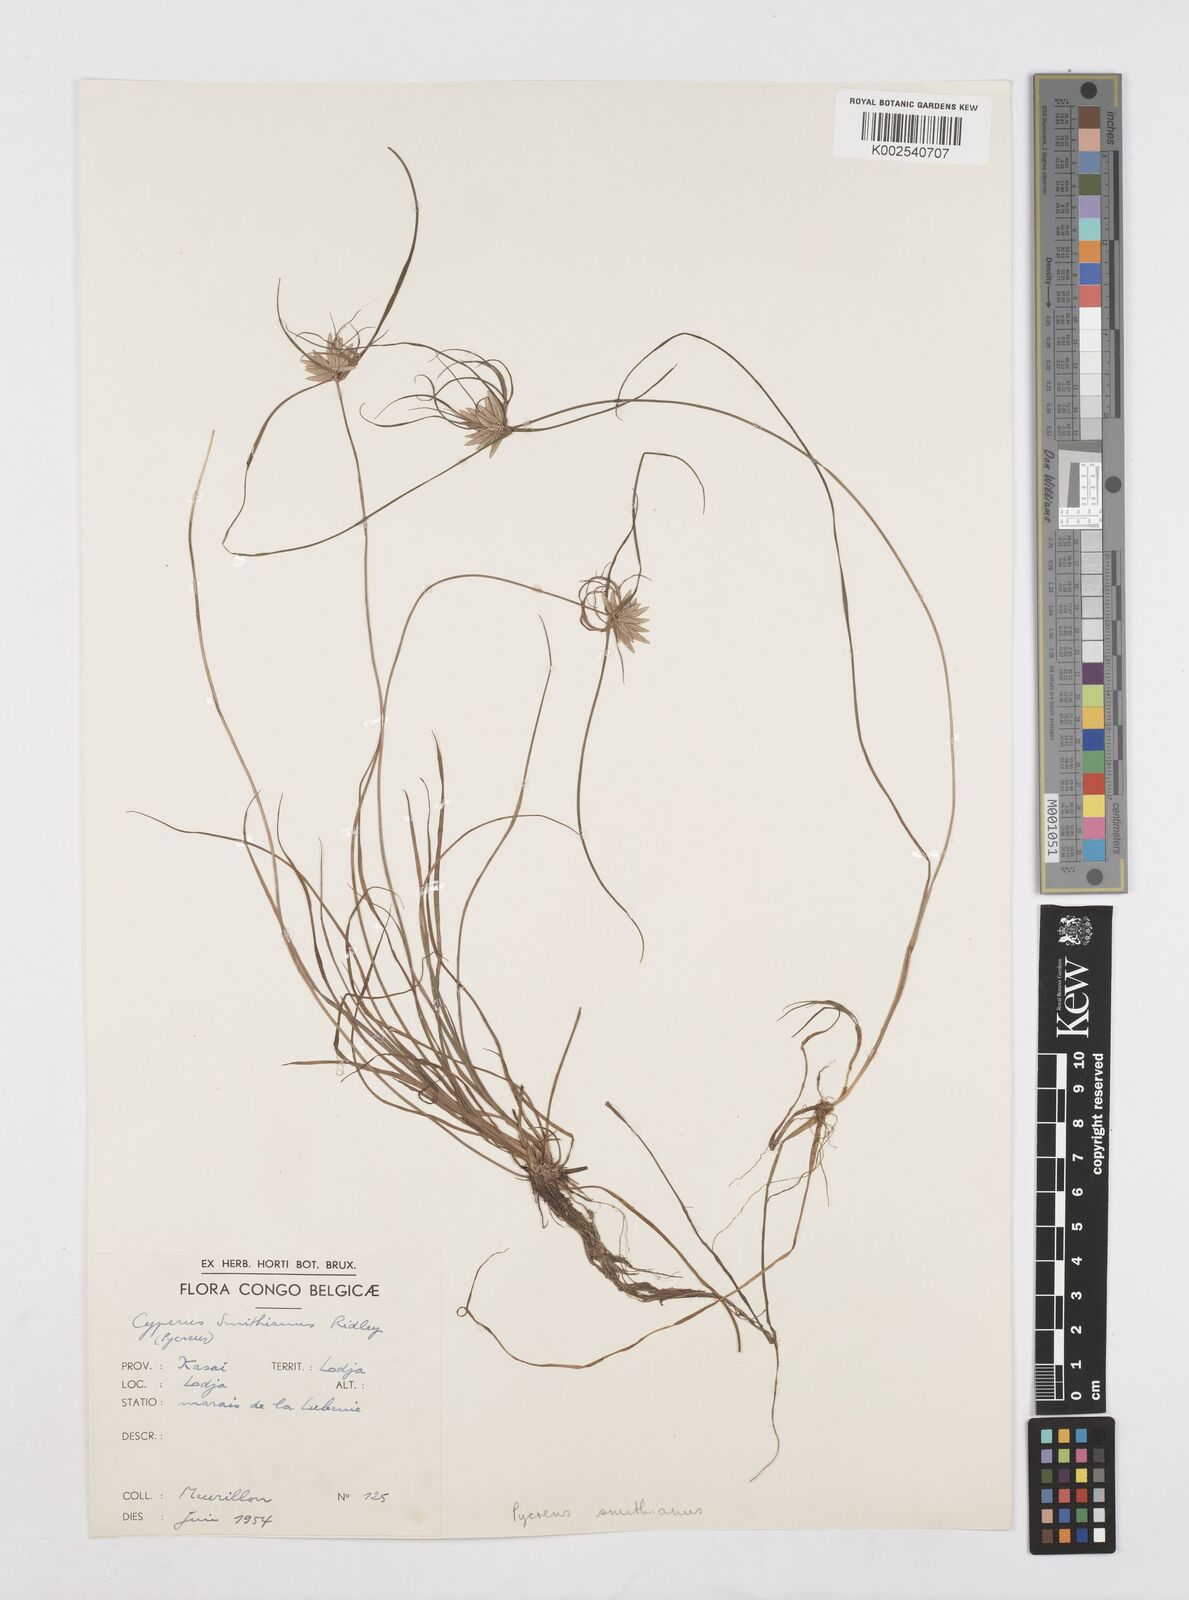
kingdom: Plantae
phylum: Tracheophyta
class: Liliopsida
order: Poales
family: Cyperaceae
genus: Cyperus
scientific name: Cyperus smithianus
